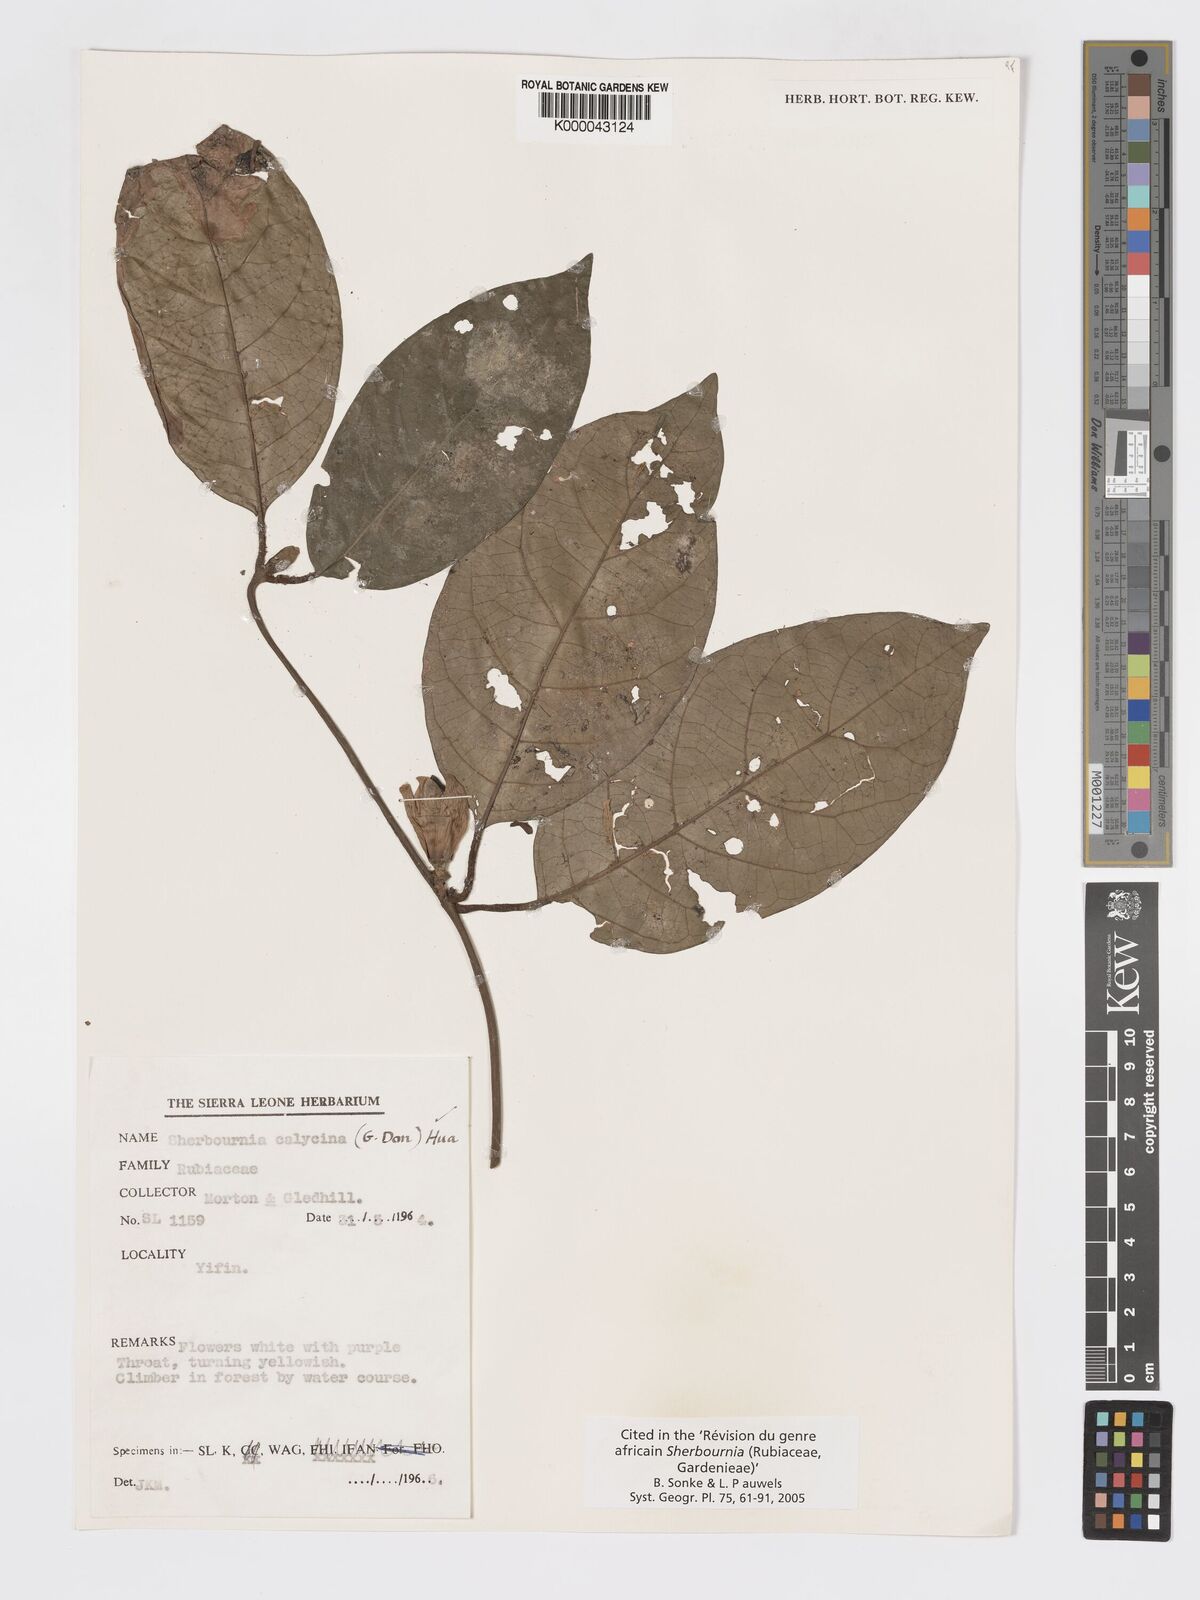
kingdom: Plantae
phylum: Tracheophyta
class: Magnoliopsida
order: Gentianales
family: Rubiaceae
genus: Sherbournia
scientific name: Sherbournia calycina
